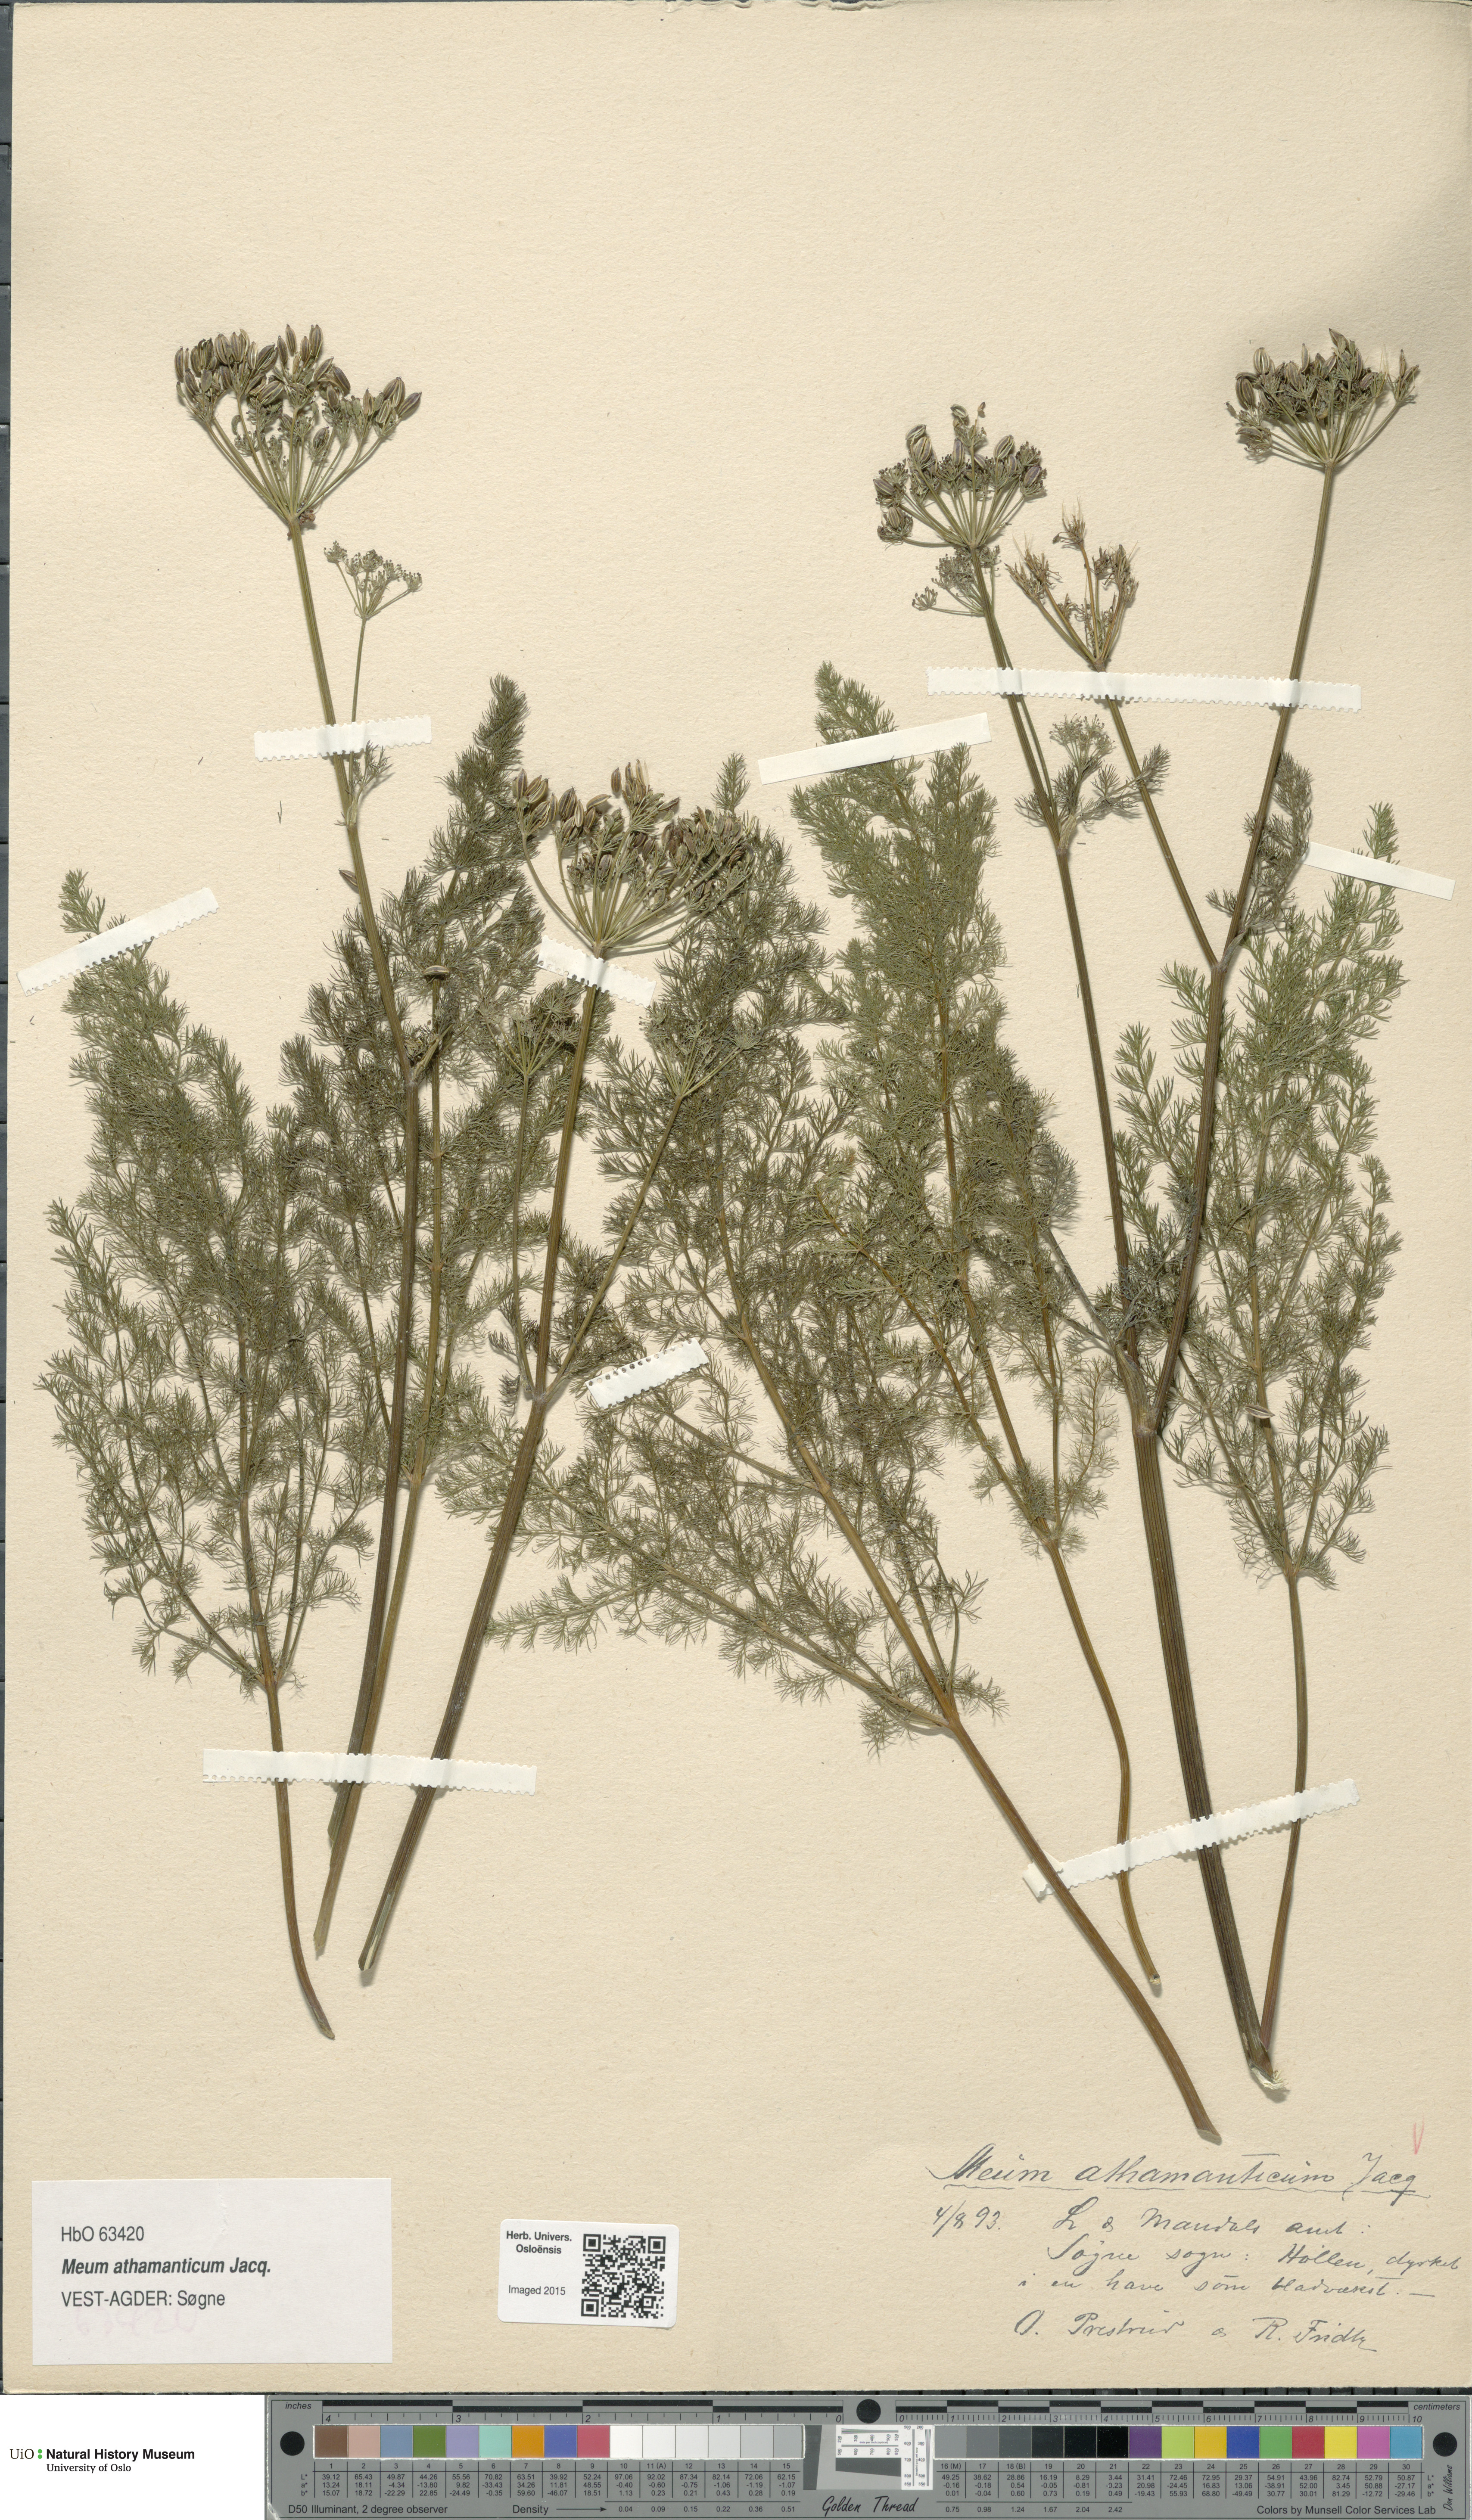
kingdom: Plantae
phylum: Tracheophyta
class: Magnoliopsida
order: Apiales
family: Apiaceae
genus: Meum
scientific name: Meum athamanticum
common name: Spignel
